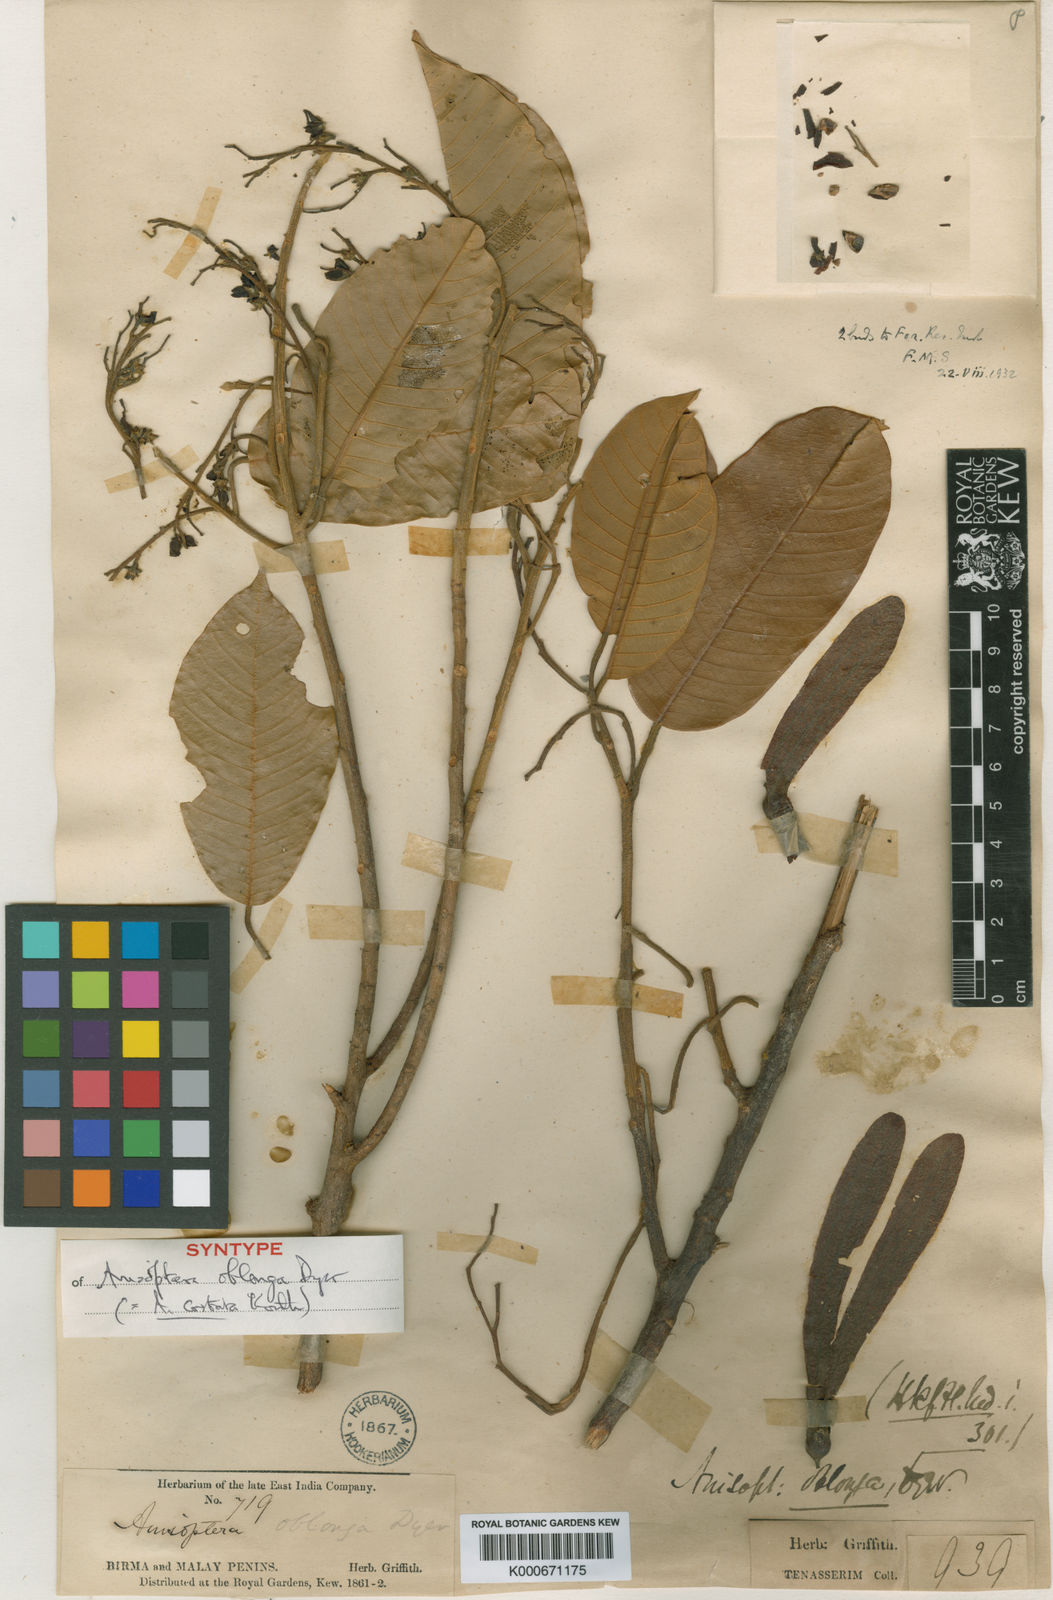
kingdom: Plantae
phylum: Tracheophyta
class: Magnoliopsida
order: Malvales
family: Dipterocarpaceae
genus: Anisoptera
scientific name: Anisoptera costata
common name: Mersawa
